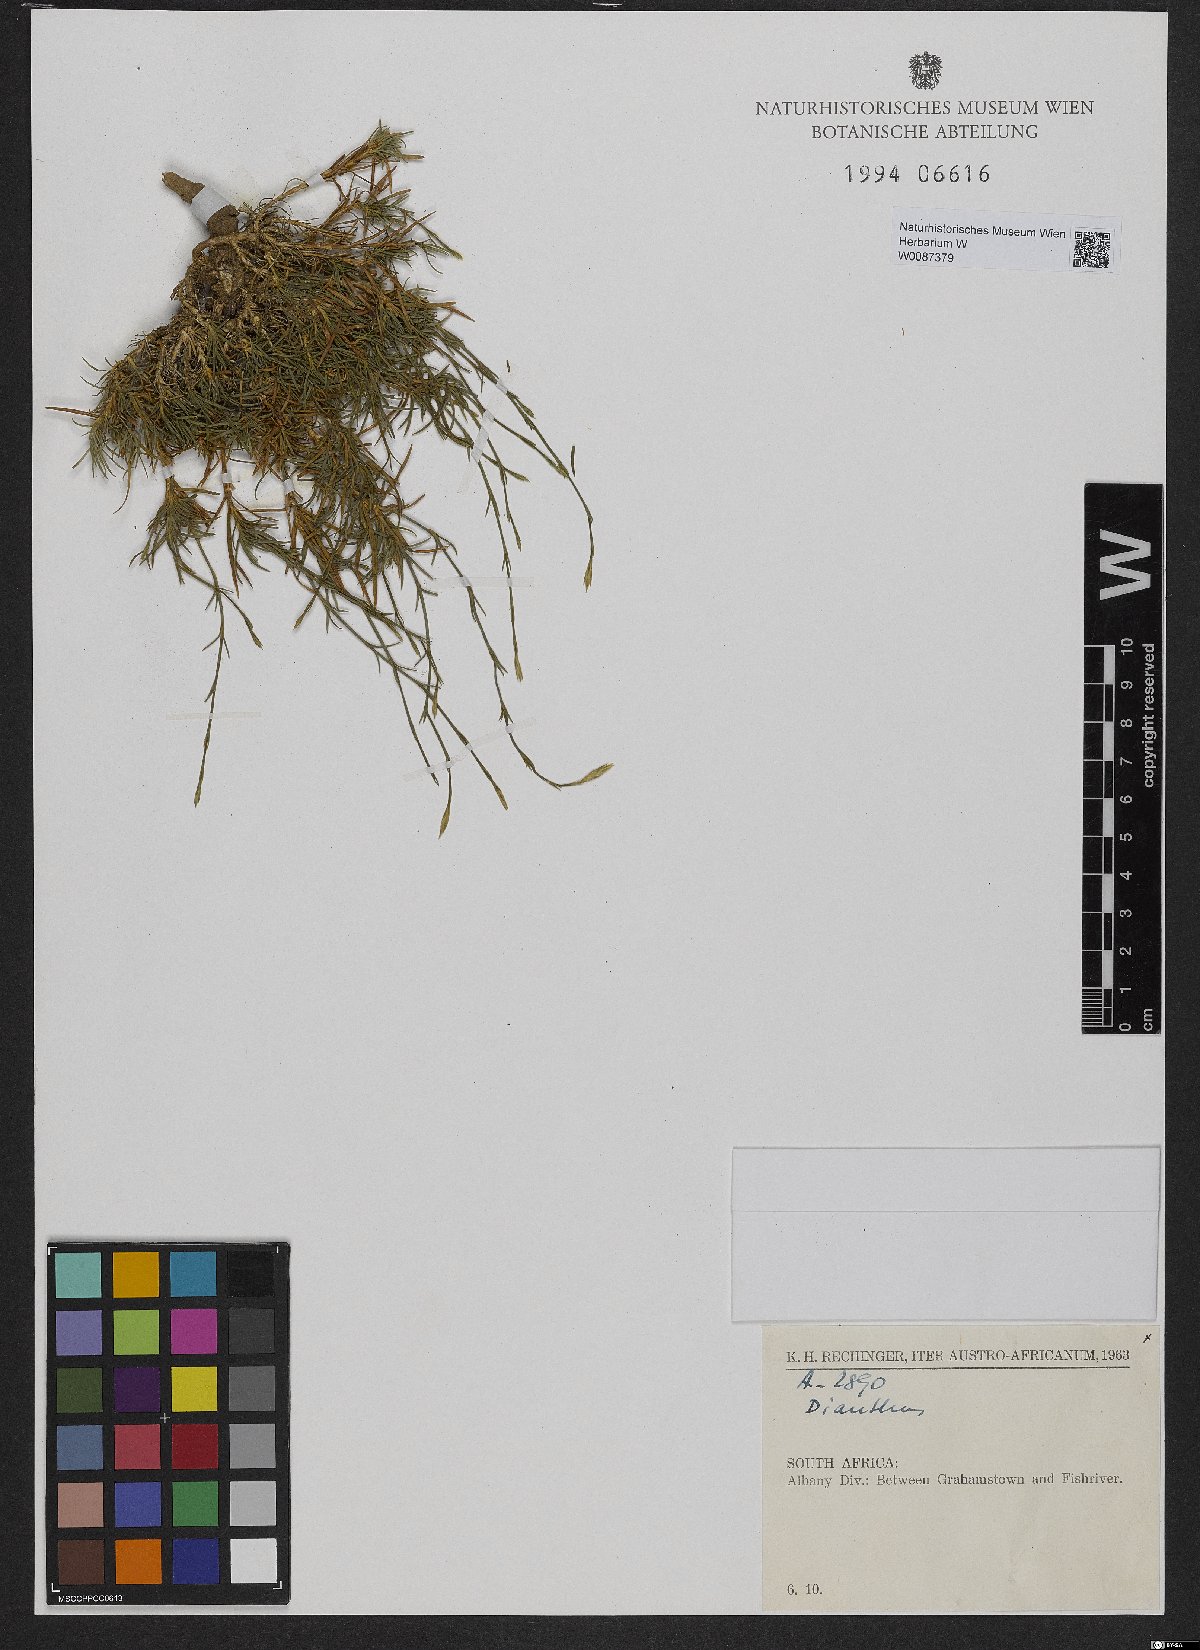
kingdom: Plantae
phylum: Tracheophyta
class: Magnoliopsida
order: Caryophyllales
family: Caryophyllaceae
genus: Dianthus
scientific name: Dianthus
